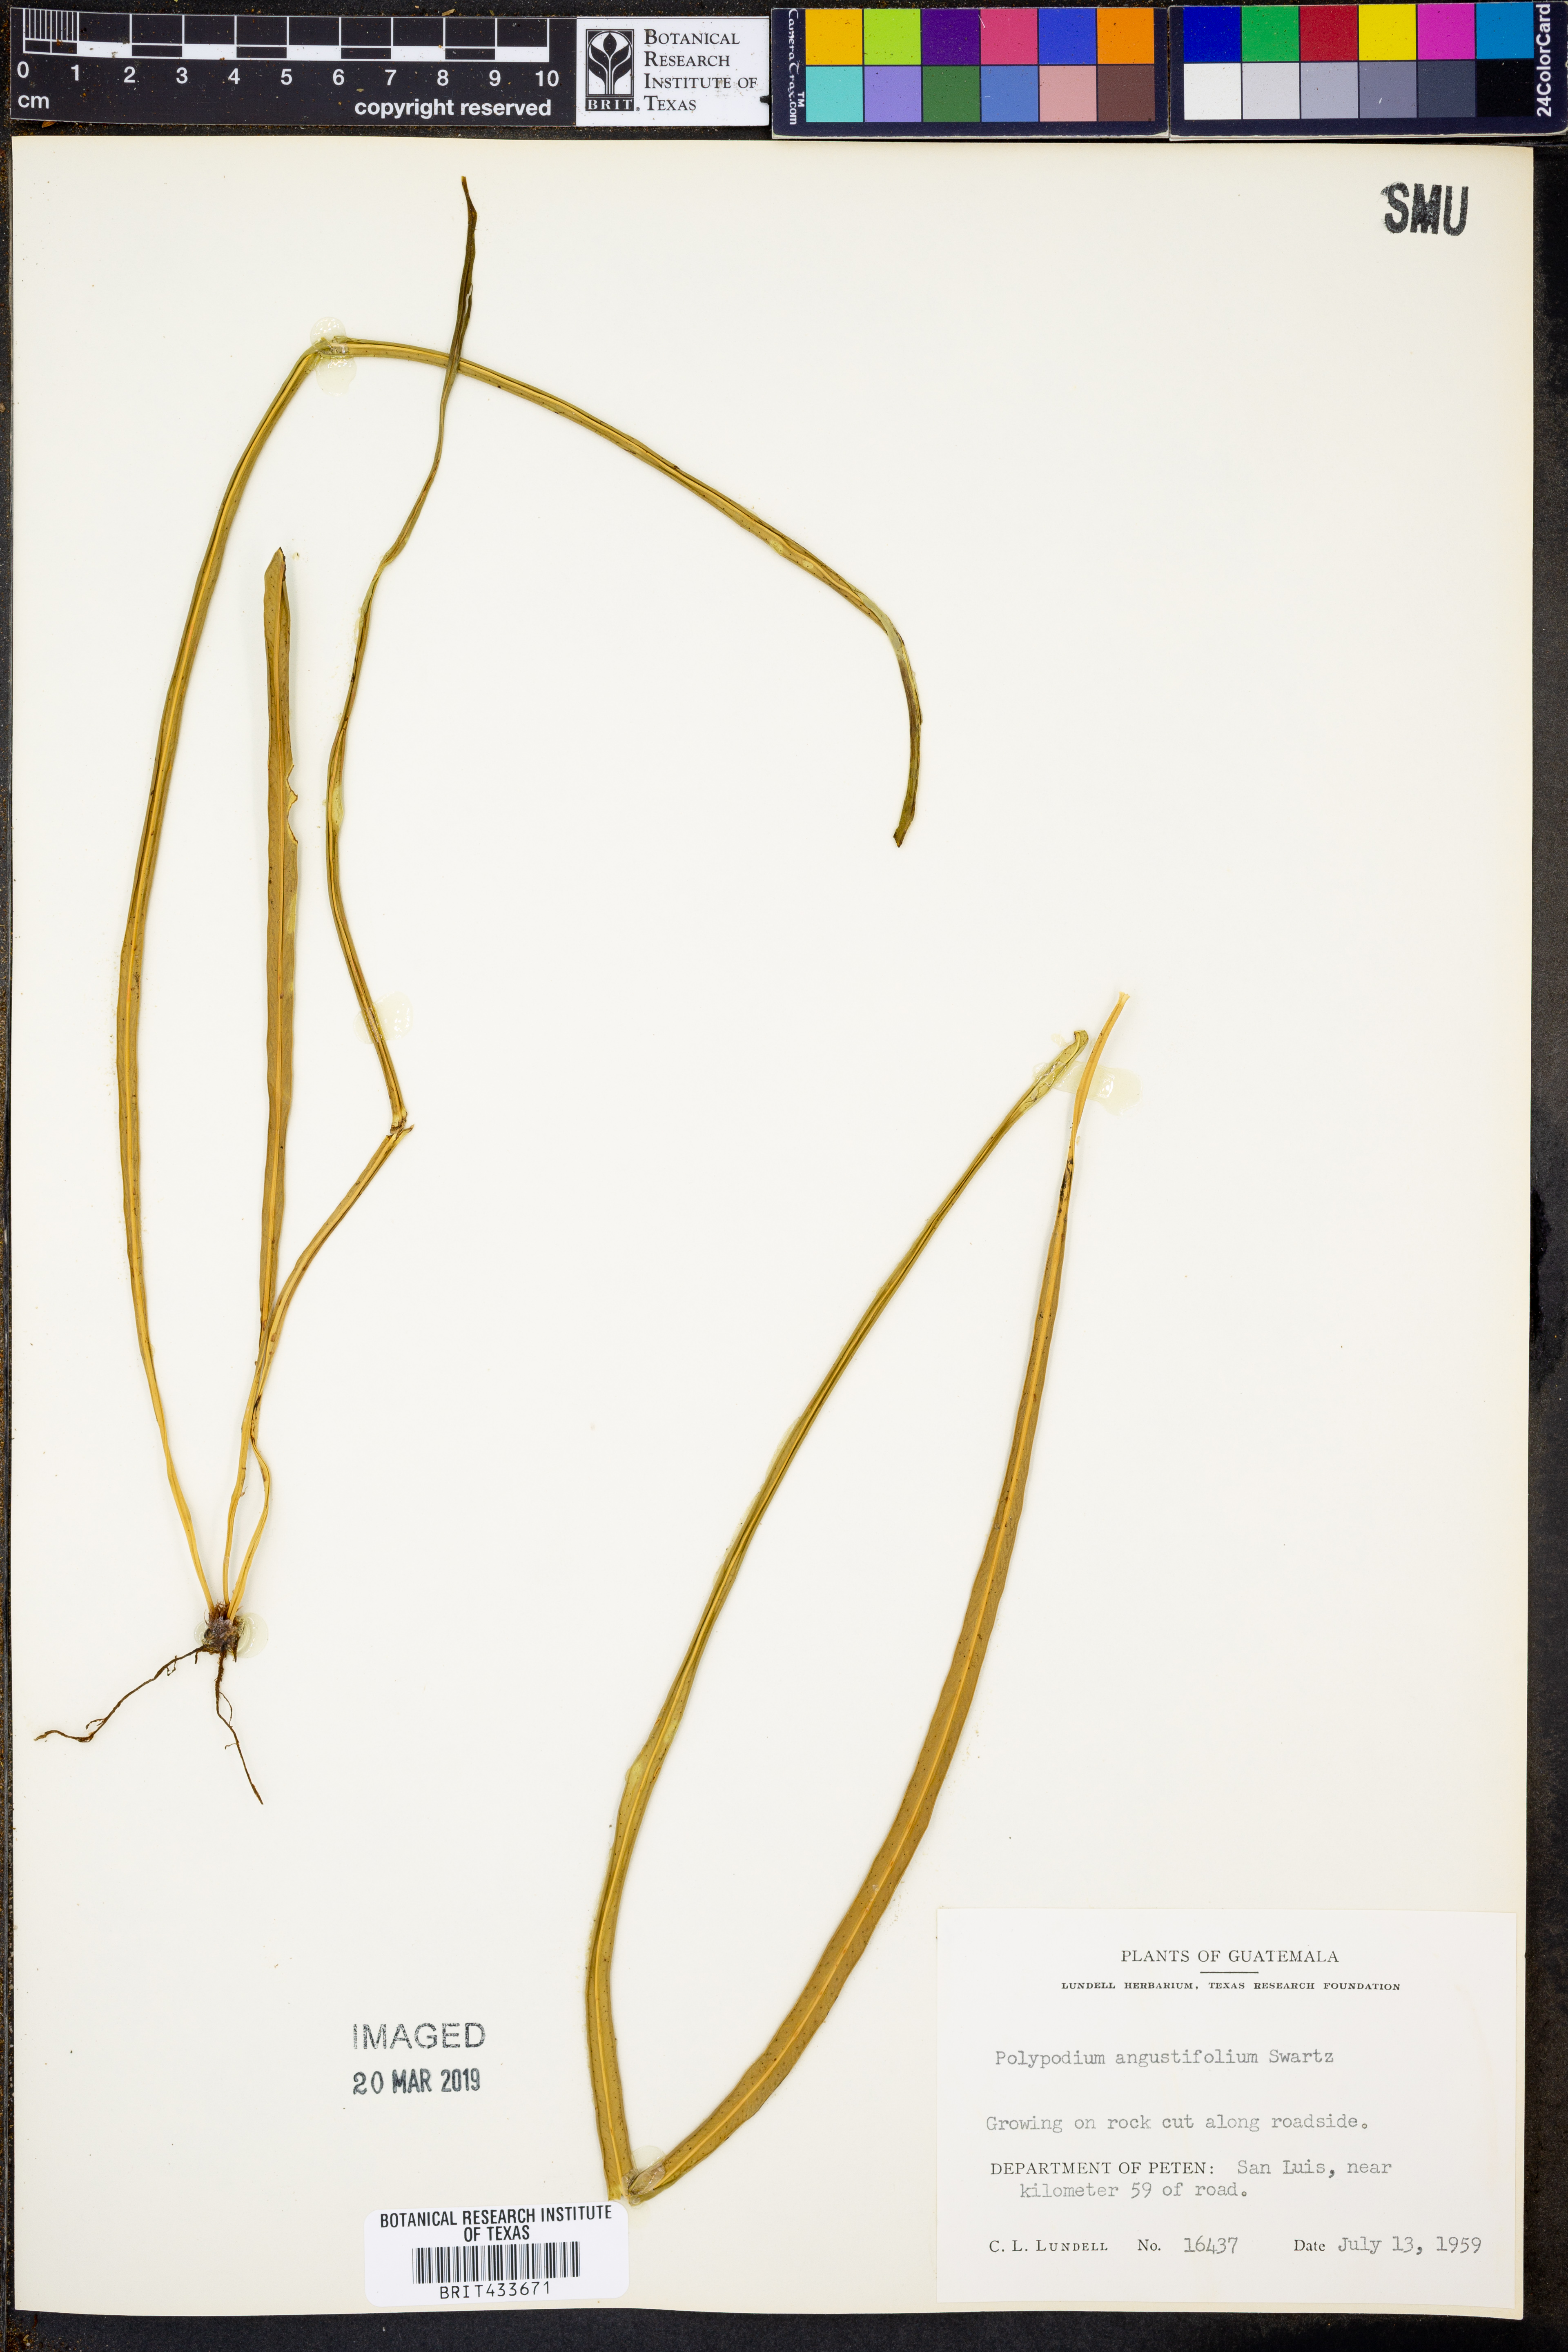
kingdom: Plantae
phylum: Tracheophyta
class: Polypodiopsida
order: Polypodiales
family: Polypodiaceae
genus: Campyloneurum
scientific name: Campyloneurum angustifolium
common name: Narrow-leaf strap fern
